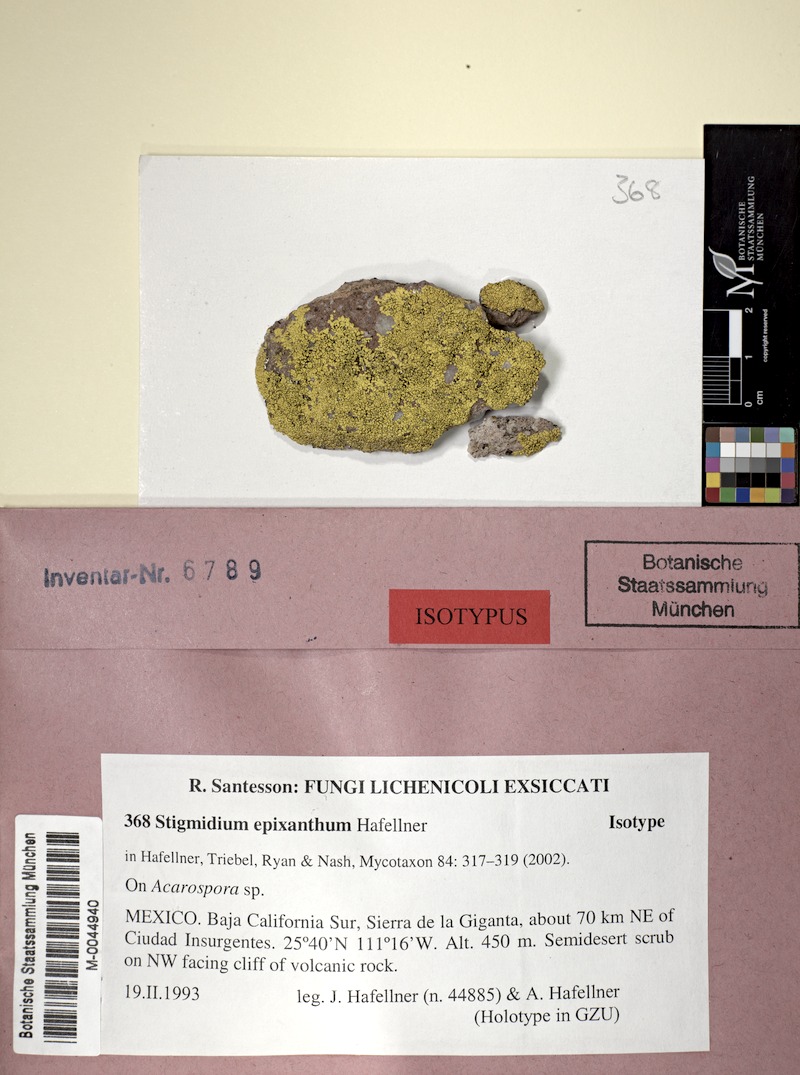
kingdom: Fungi
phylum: Ascomycota
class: Lecanoromycetes
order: Acarosporales
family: Acarosporaceae
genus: Acarospora
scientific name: Acarospora
